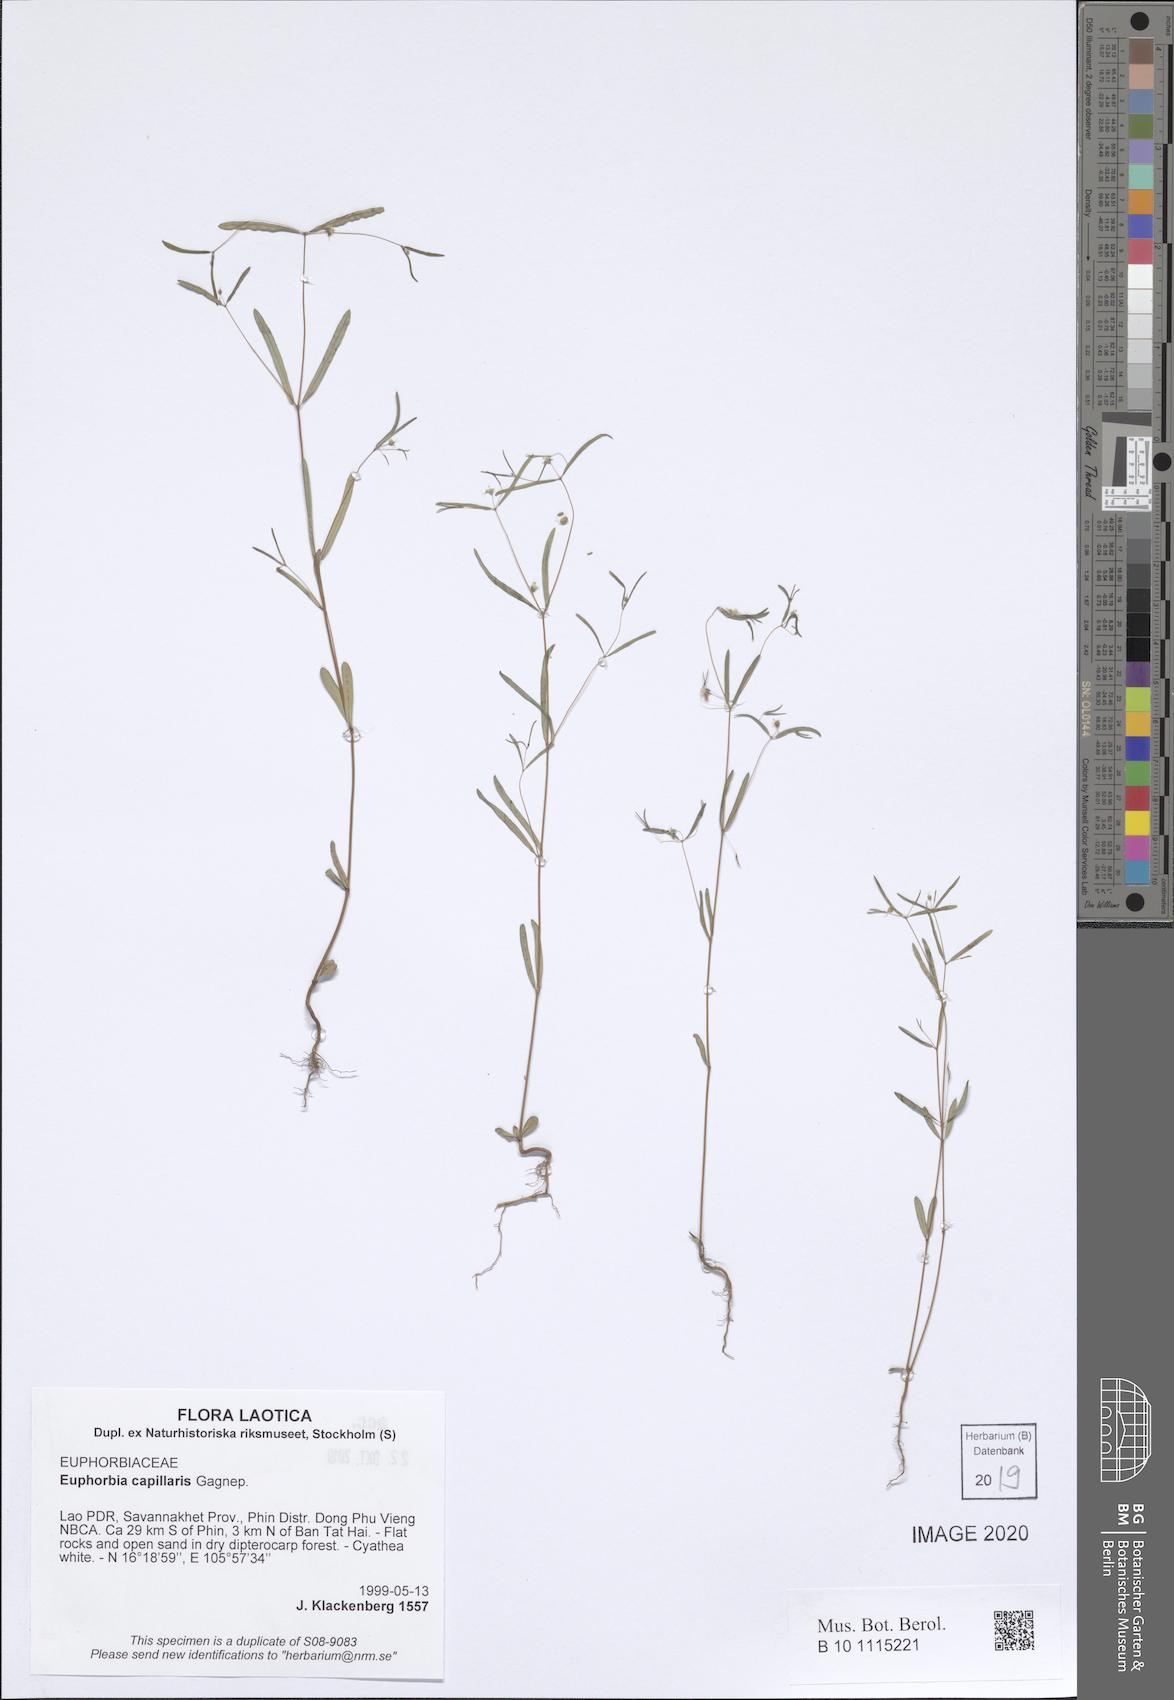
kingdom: Plantae
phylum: Tracheophyta
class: Magnoliopsida
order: Malpighiales
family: Euphorbiaceae
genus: Euphorbia
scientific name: Euphorbia
